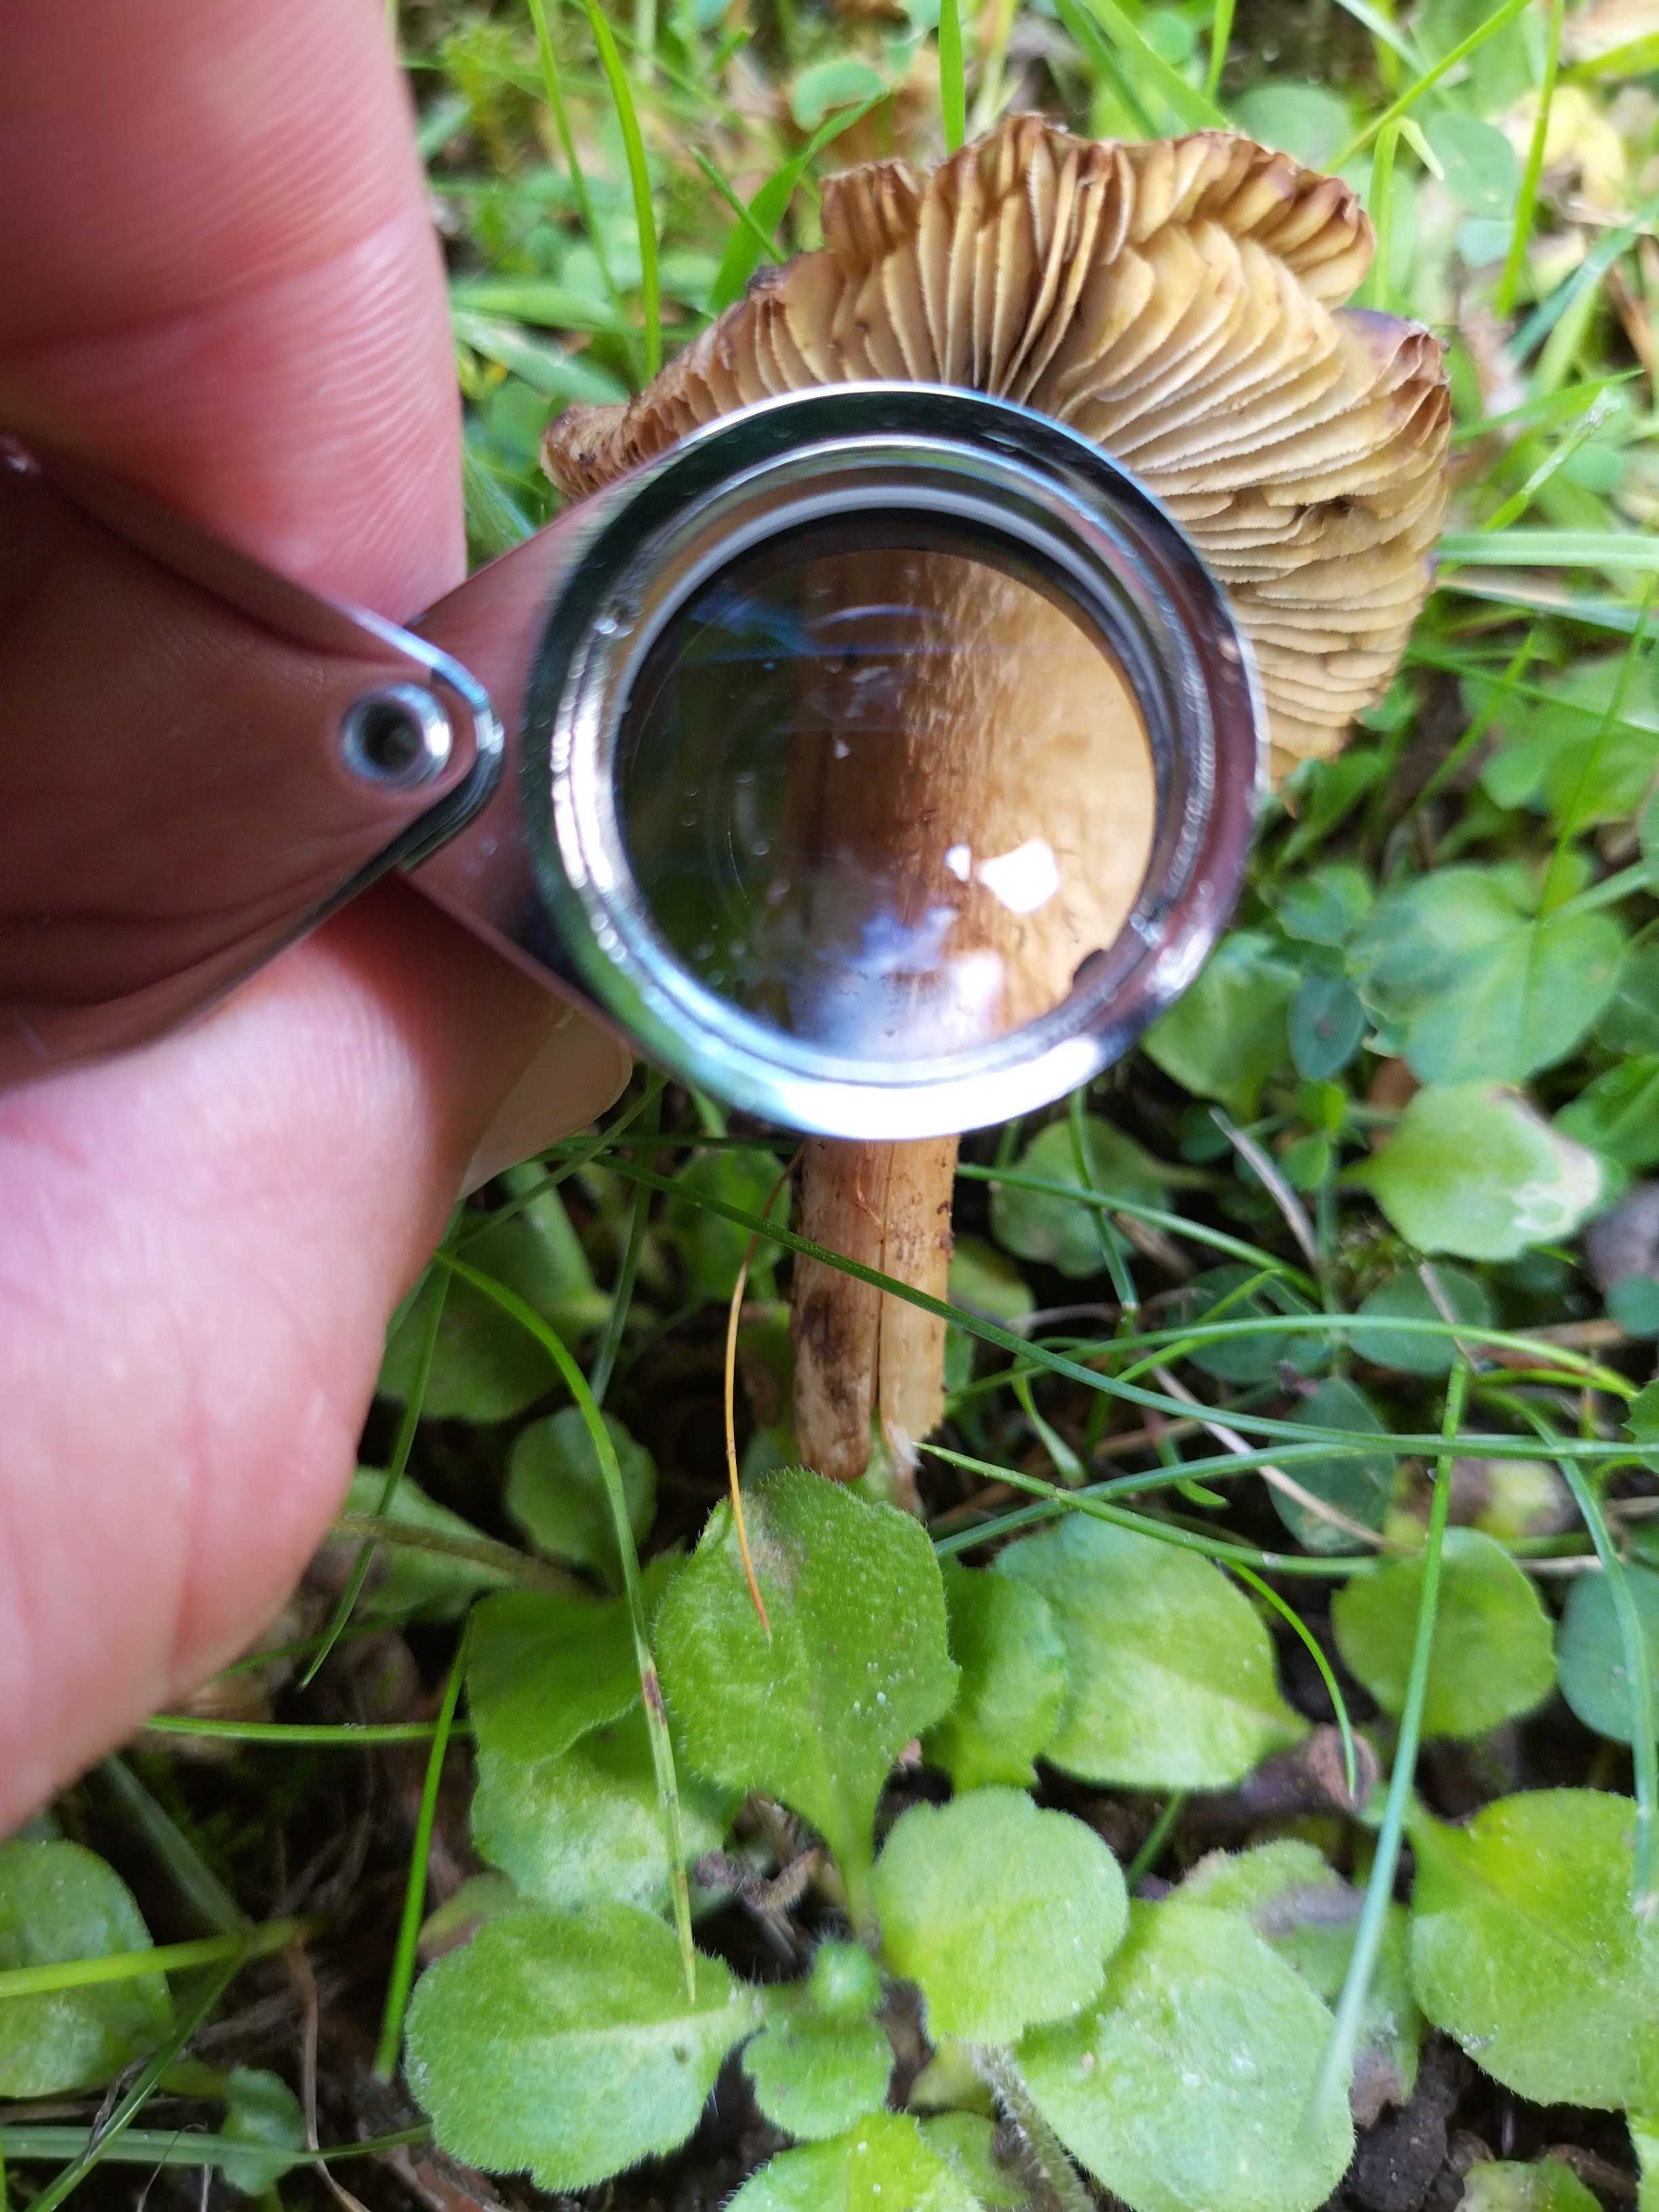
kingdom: Fungi
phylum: Basidiomycota
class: Agaricomycetes
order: Agaricales
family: Inocybaceae
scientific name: Inocybaceae
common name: trævlhatfamilien
